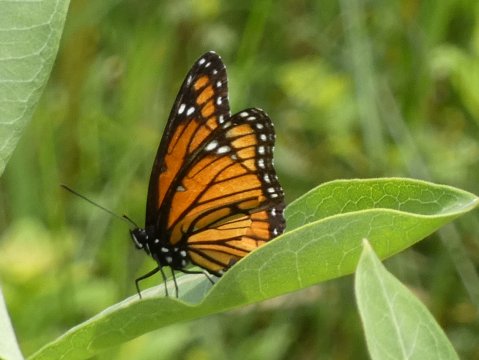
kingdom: Animalia
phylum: Arthropoda
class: Insecta
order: Lepidoptera
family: Nymphalidae
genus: Limenitis
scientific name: Limenitis archippus
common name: Viceroy
